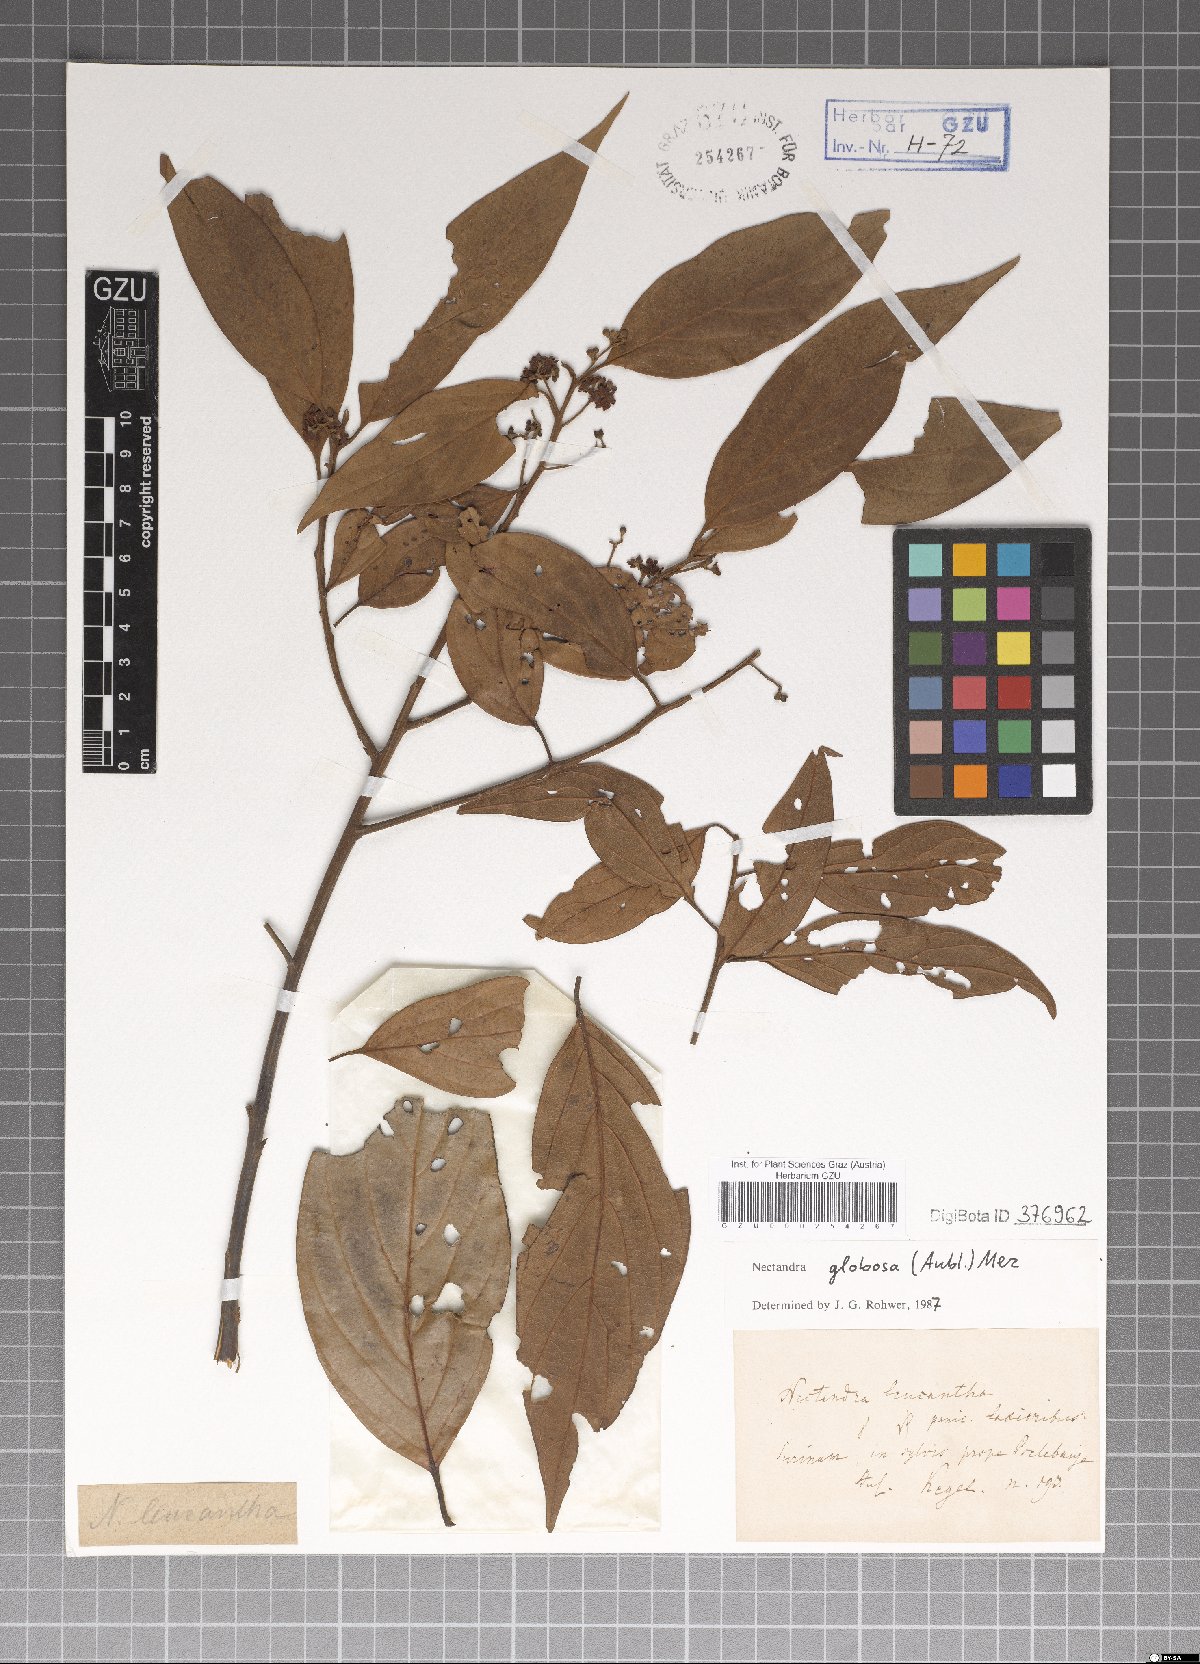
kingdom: Plantae
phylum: Tracheophyta
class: Magnoliopsida
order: Laurales
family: Lauraceae
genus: Nectandra
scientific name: Nectandra globosa
